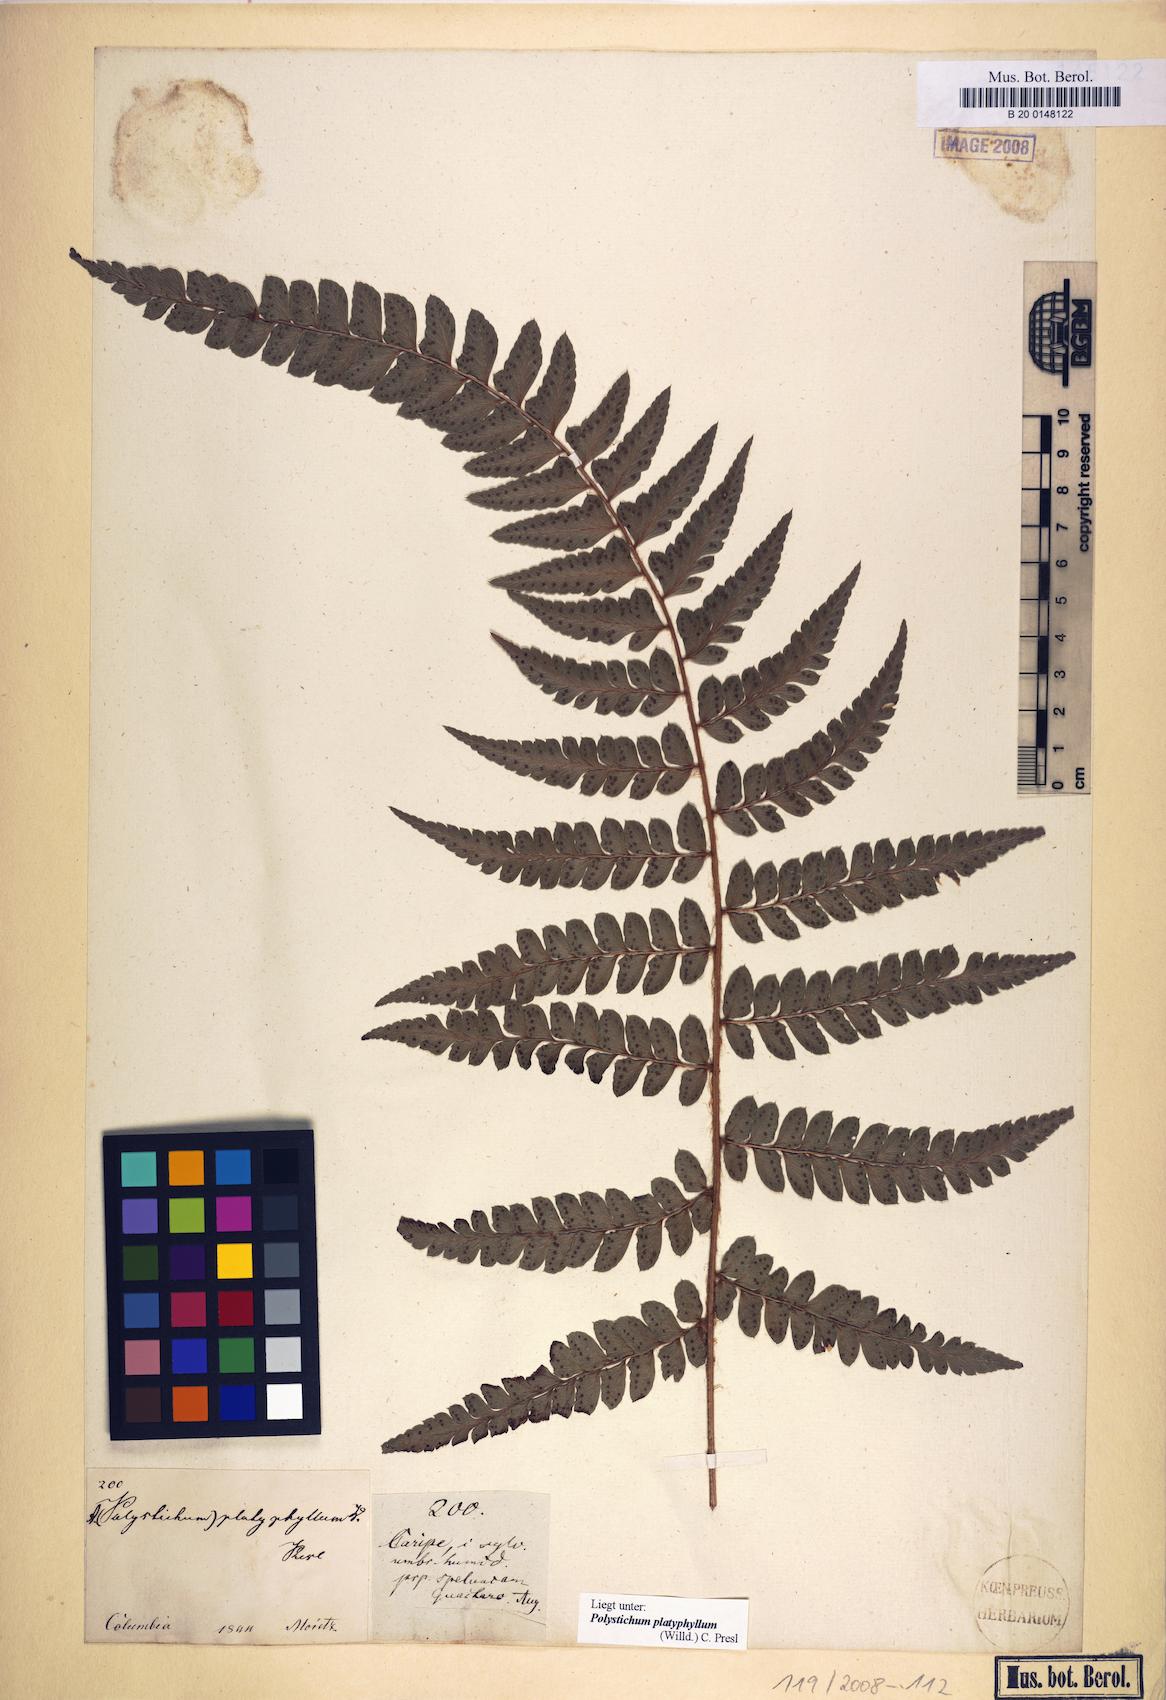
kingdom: Plantae
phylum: Tracheophyta
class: Polypodiopsida
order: Polypodiales
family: Dryopteridaceae
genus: Polystichum
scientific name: Polystichum platyphyllum
